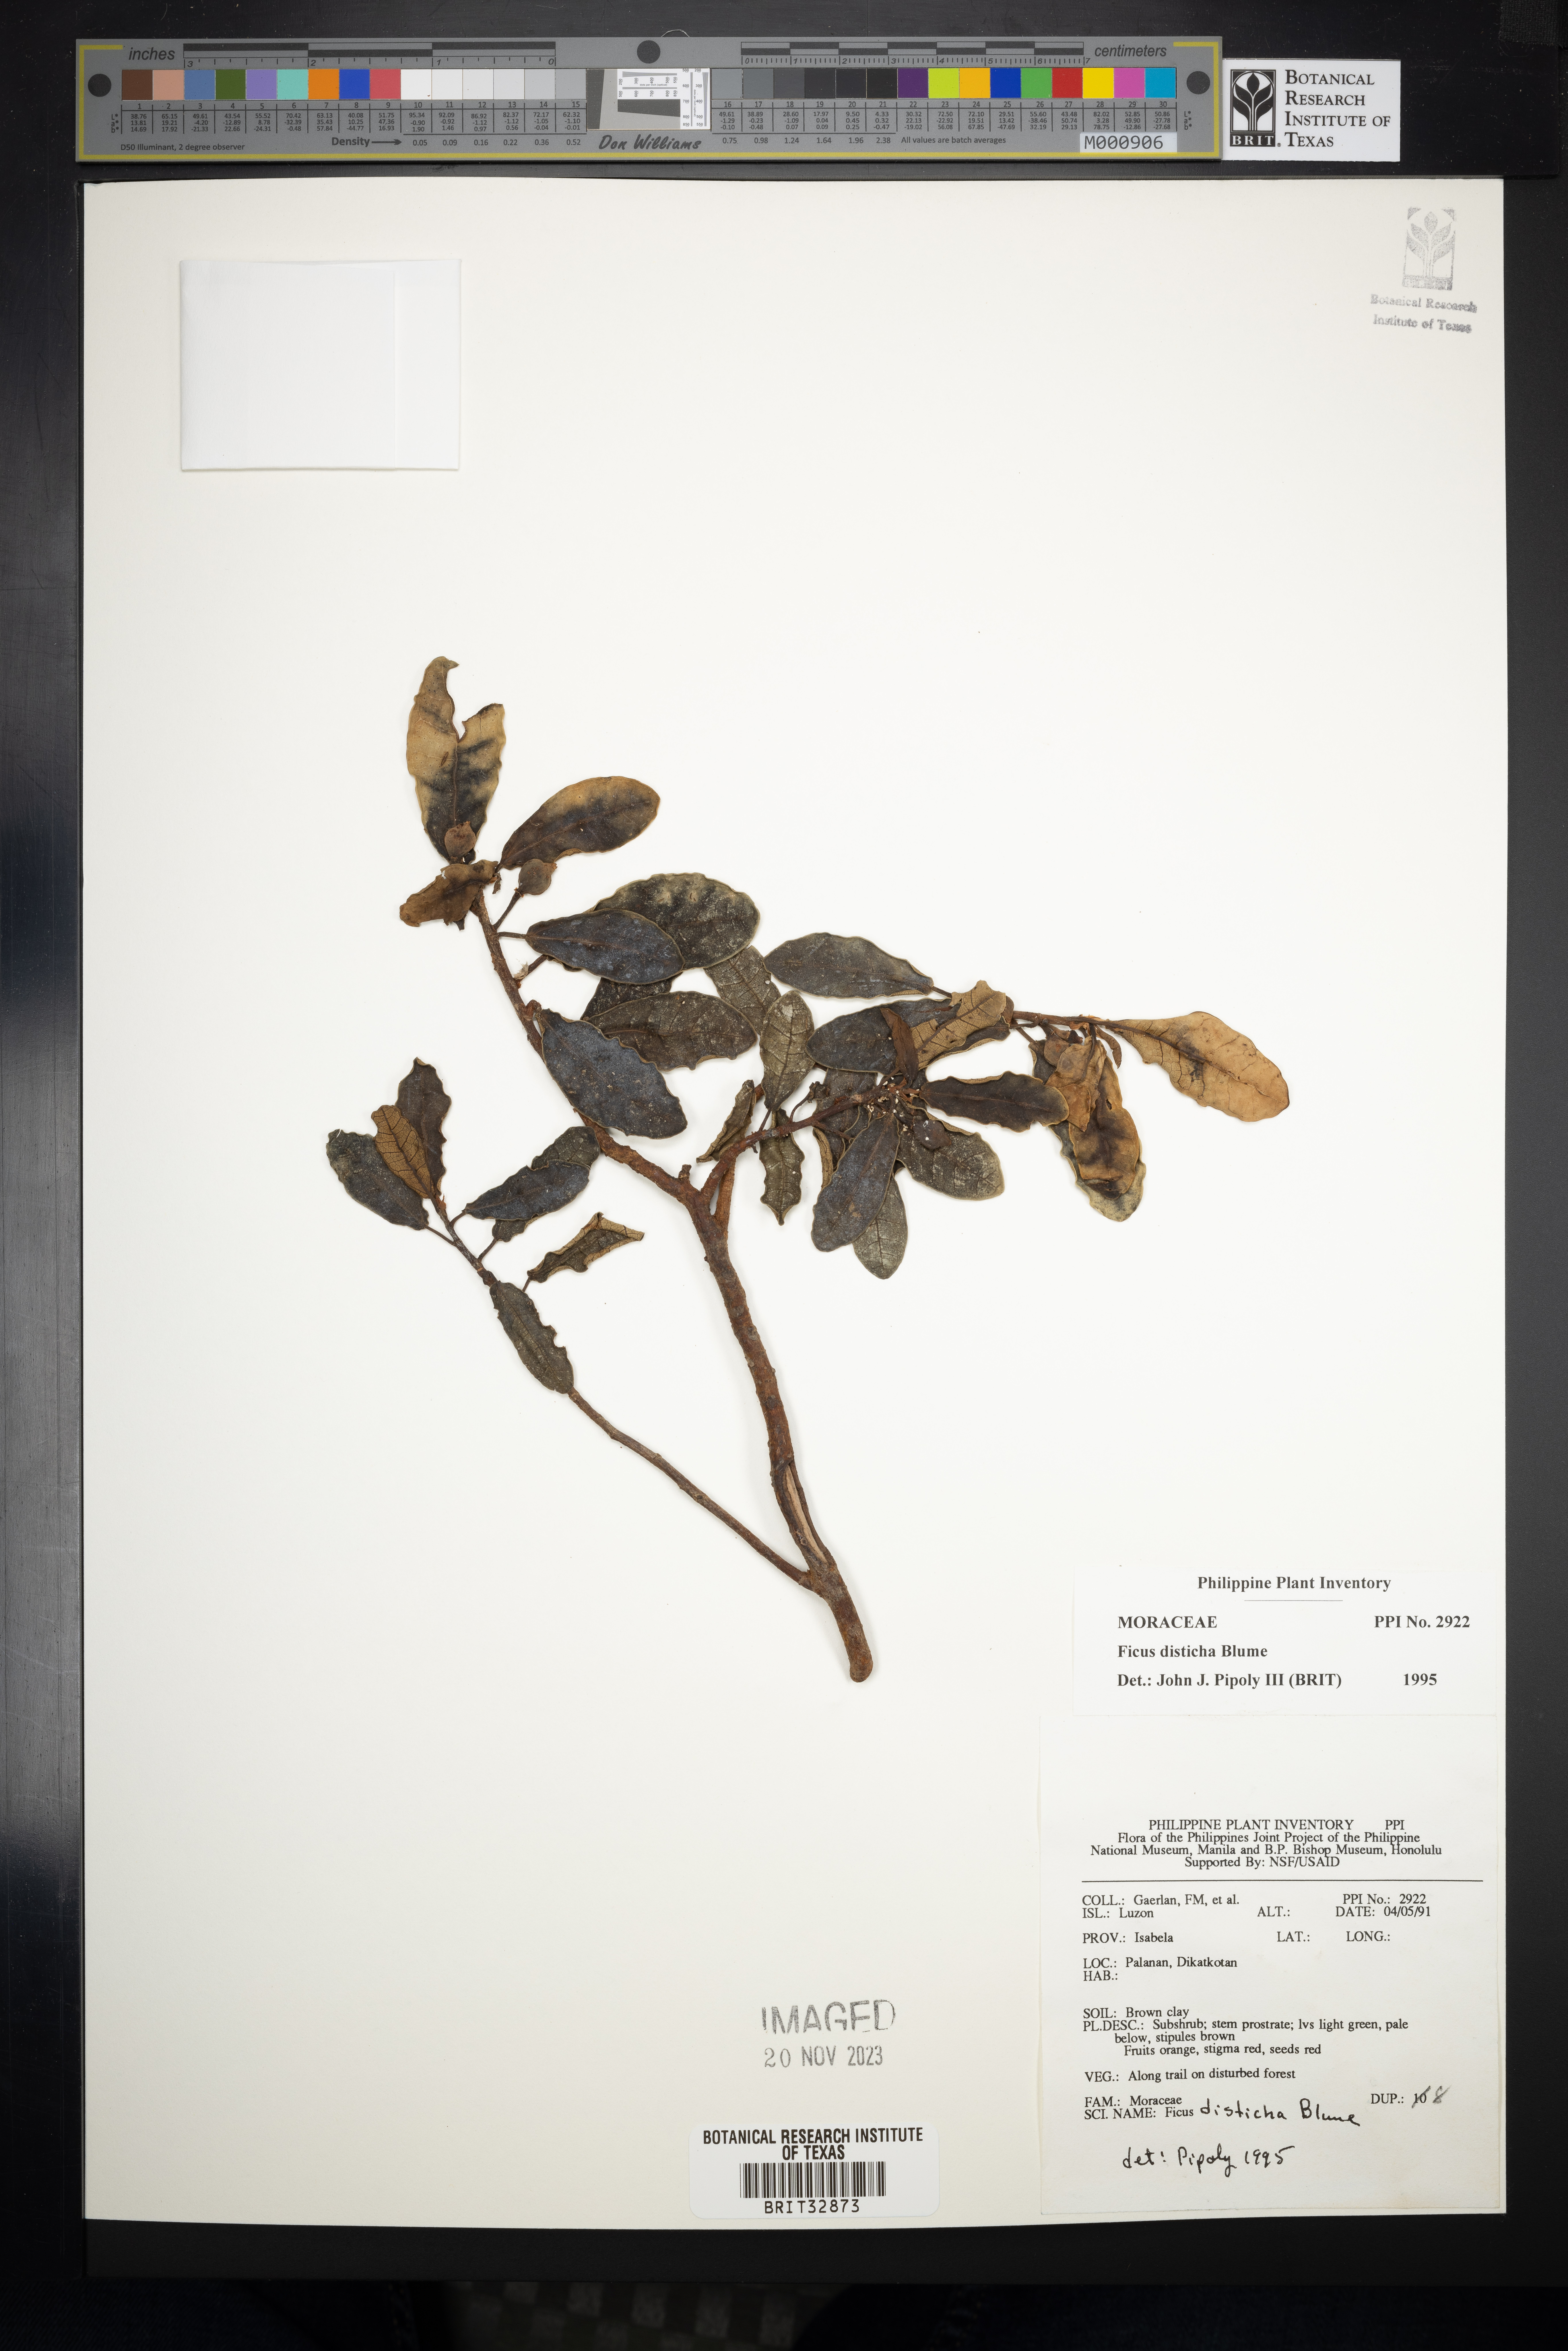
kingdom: Plantae
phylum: Tracheophyta
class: Magnoliopsida
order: Rosales
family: Moraceae
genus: Ficus
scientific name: Ficus disticha
